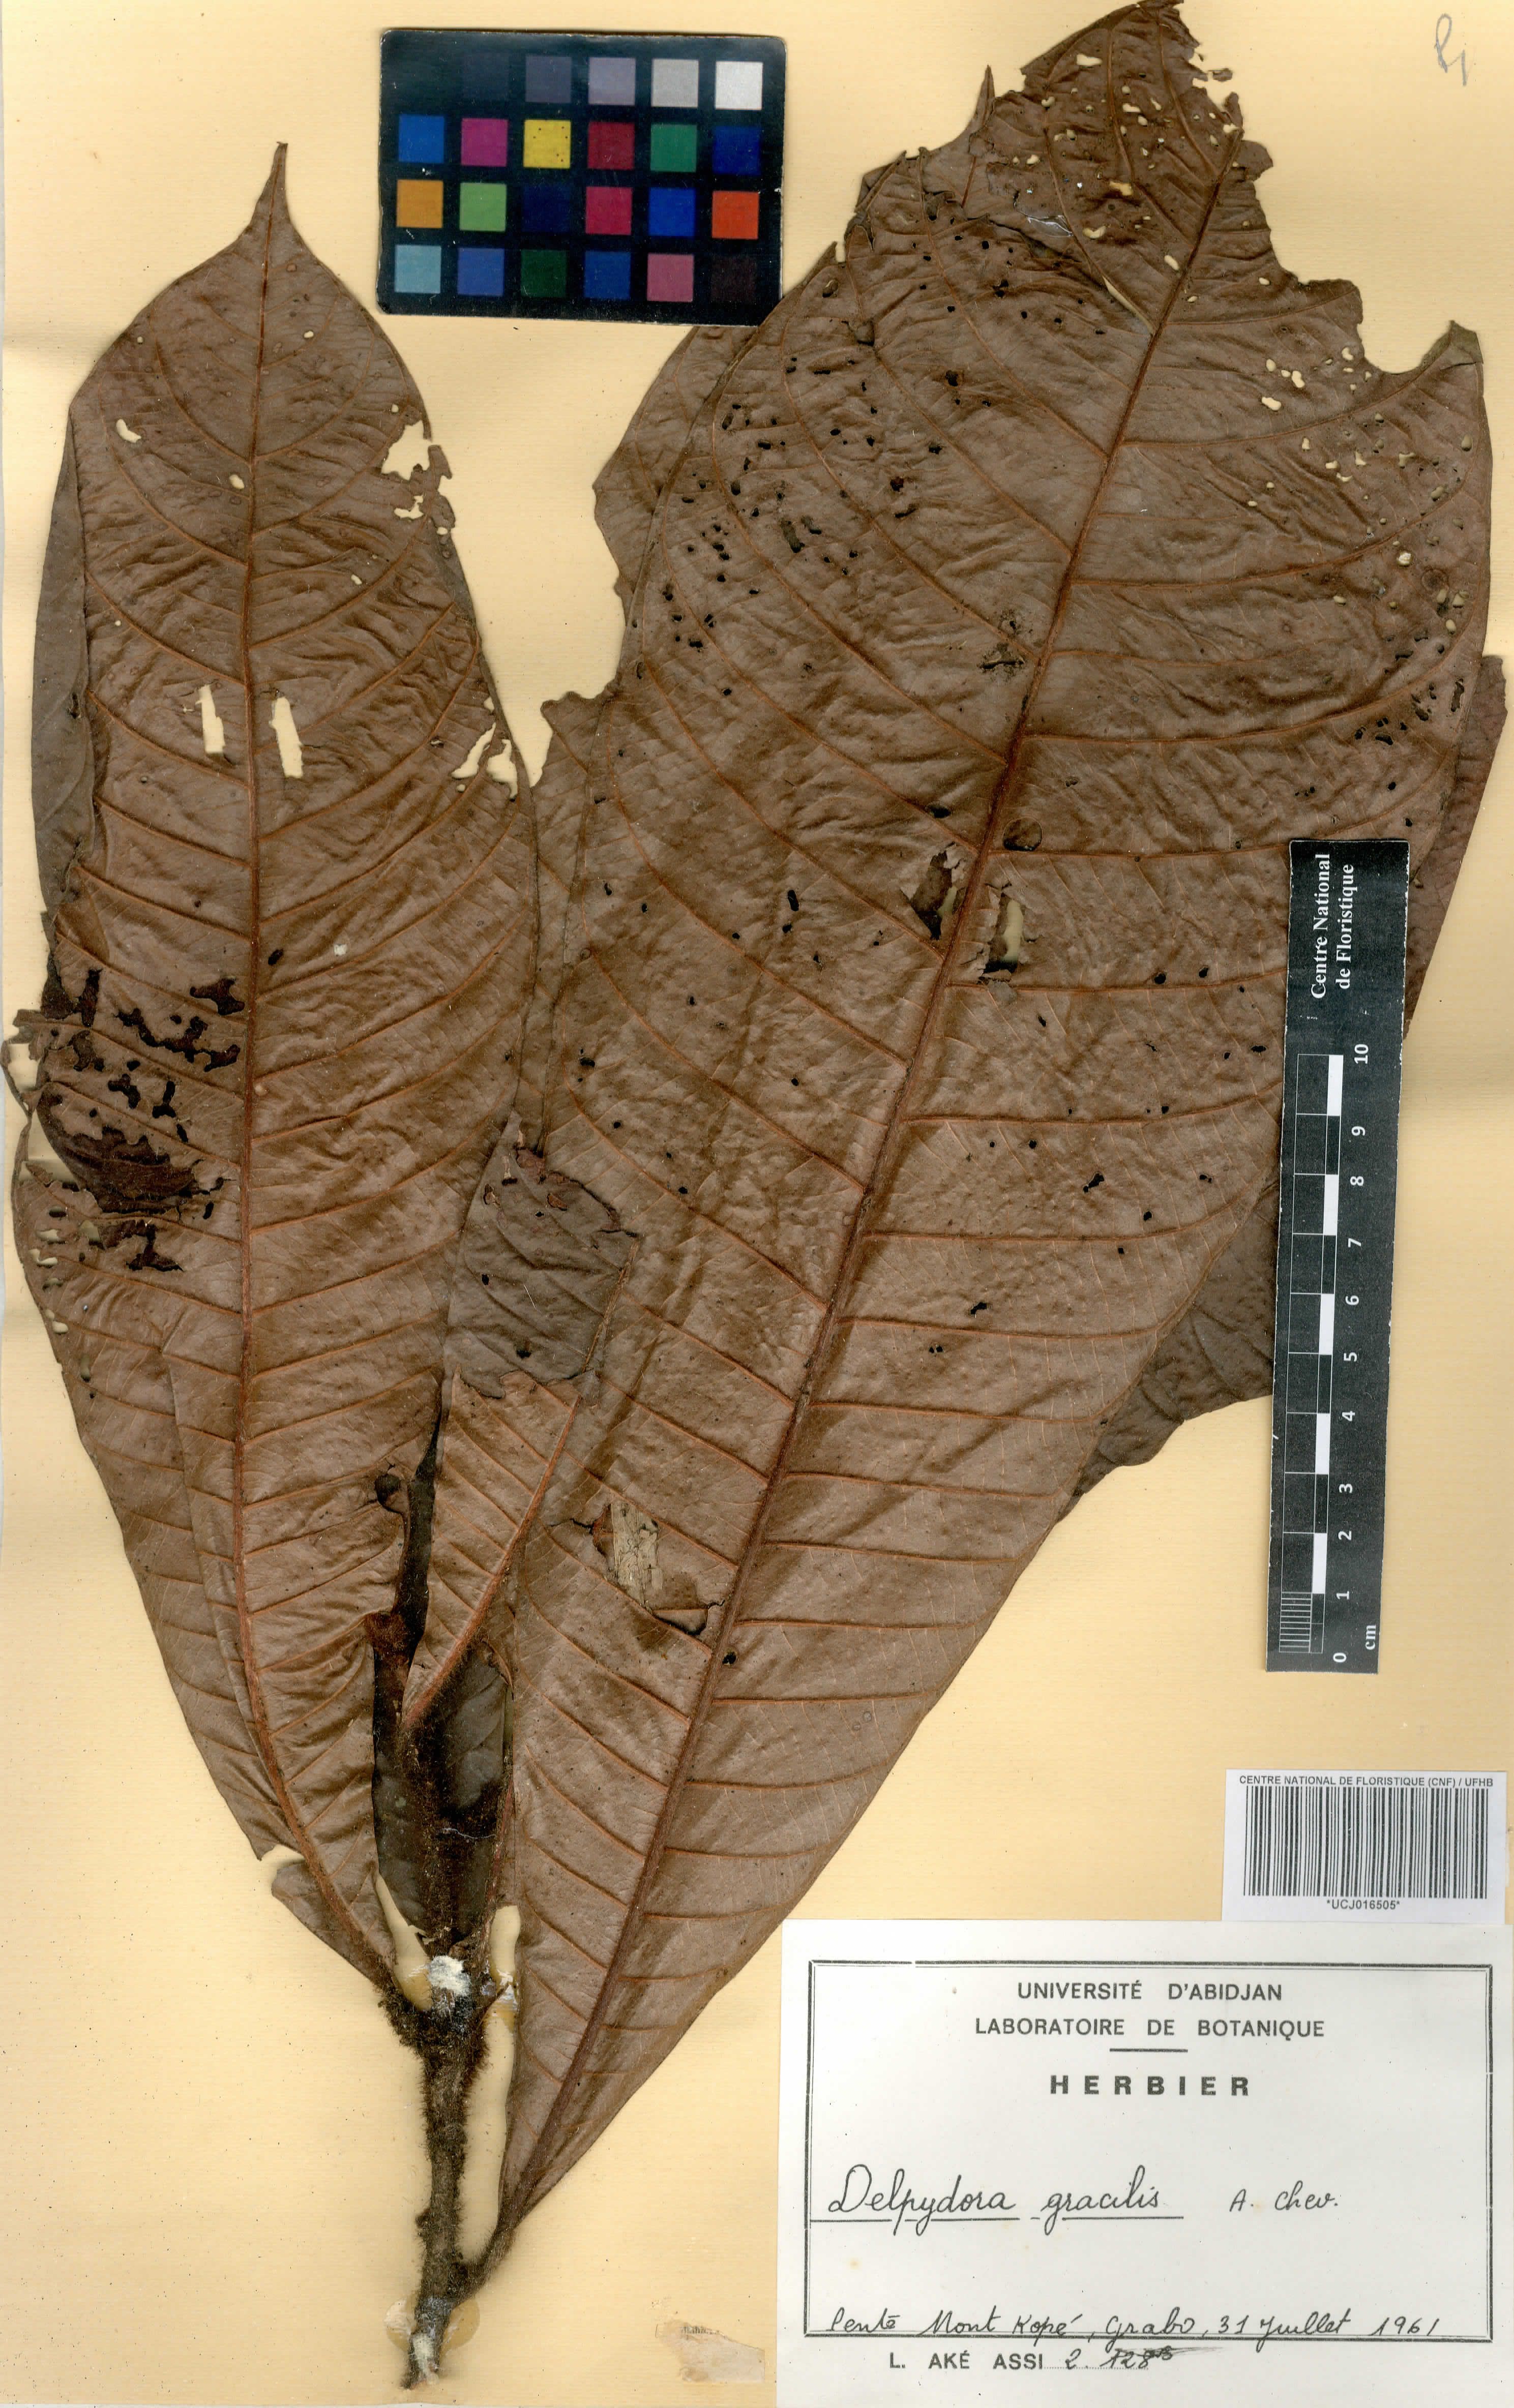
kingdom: Plantae
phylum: Tracheophyta
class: Magnoliopsida
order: Ericales
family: Sapotaceae
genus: Delpydora
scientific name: Delpydora gracilis
